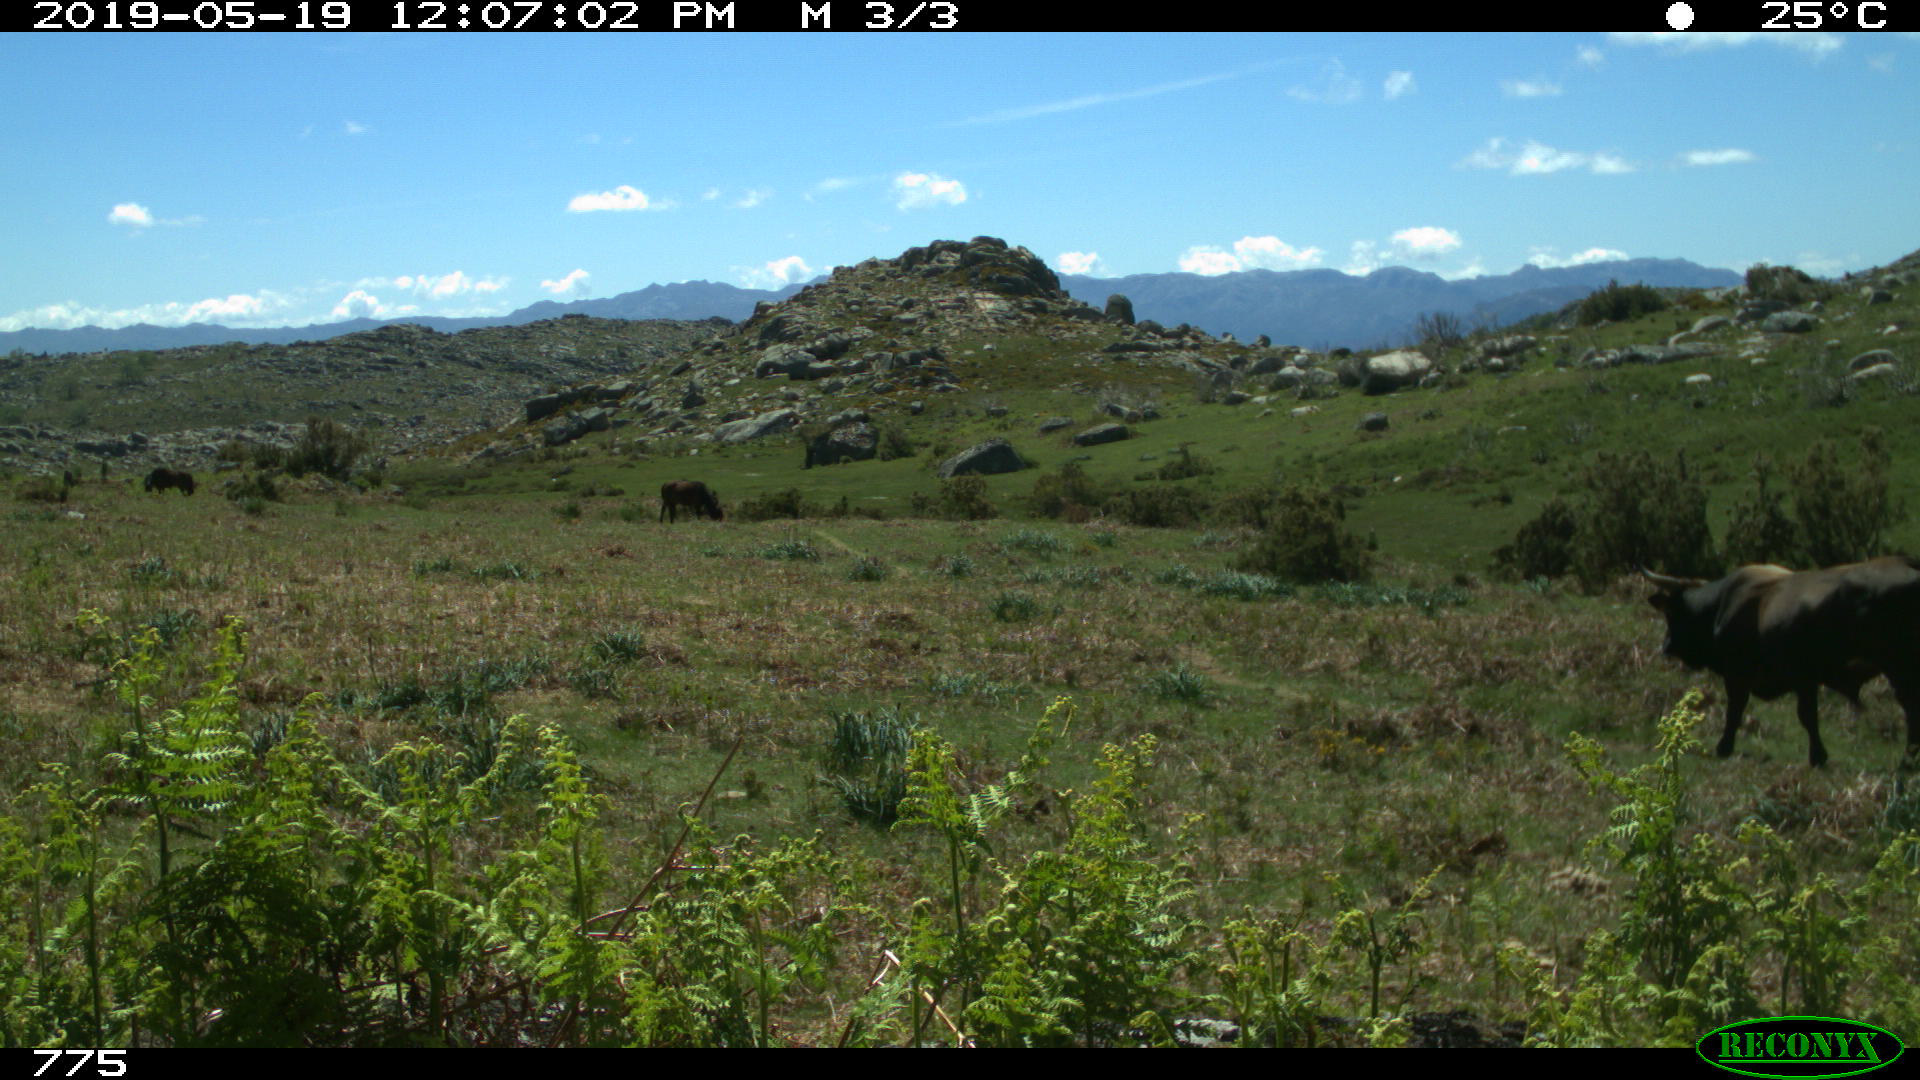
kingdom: Animalia
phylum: Chordata
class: Mammalia
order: Artiodactyla
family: Bovidae
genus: Bos
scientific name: Bos taurus
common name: Domesticated cattle
